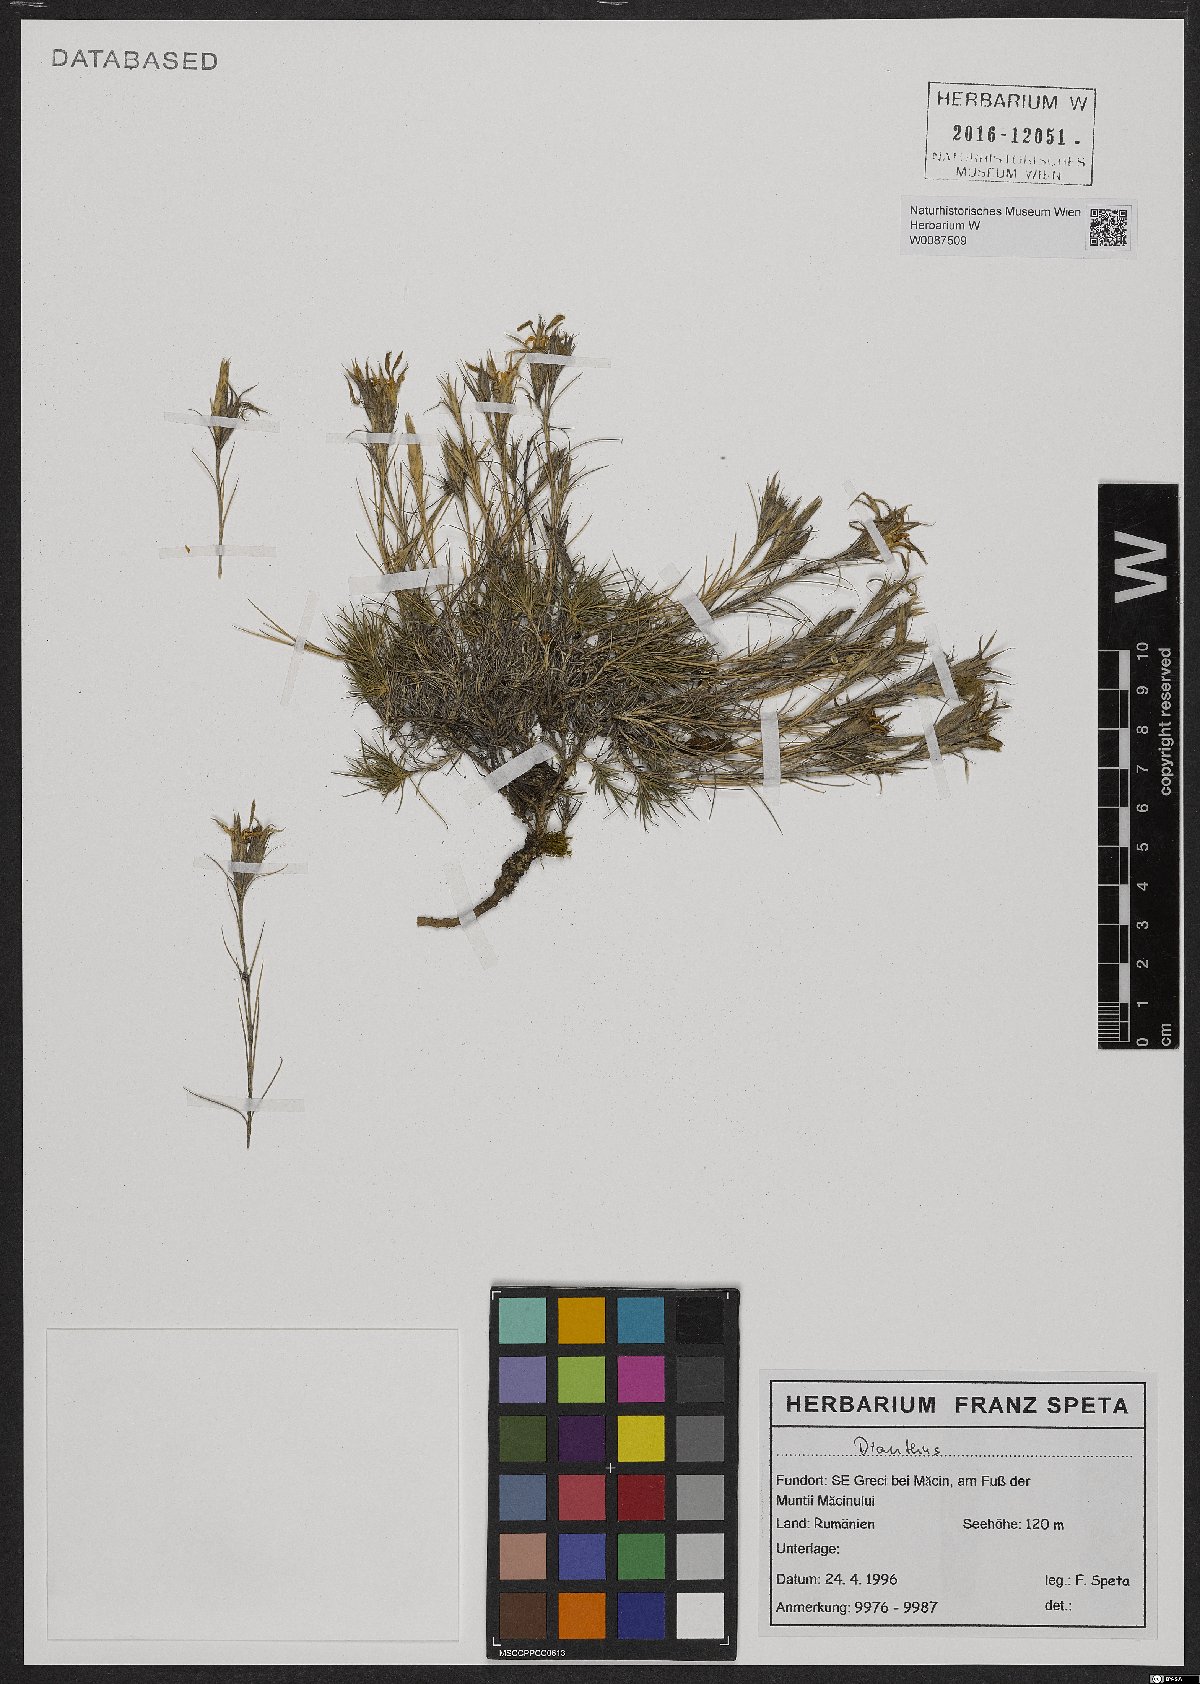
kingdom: Plantae
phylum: Tracheophyta
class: Magnoliopsida
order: Caryophyllales
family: Caryophyllaceae
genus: Dianthus
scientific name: Dianthus nardiformis
